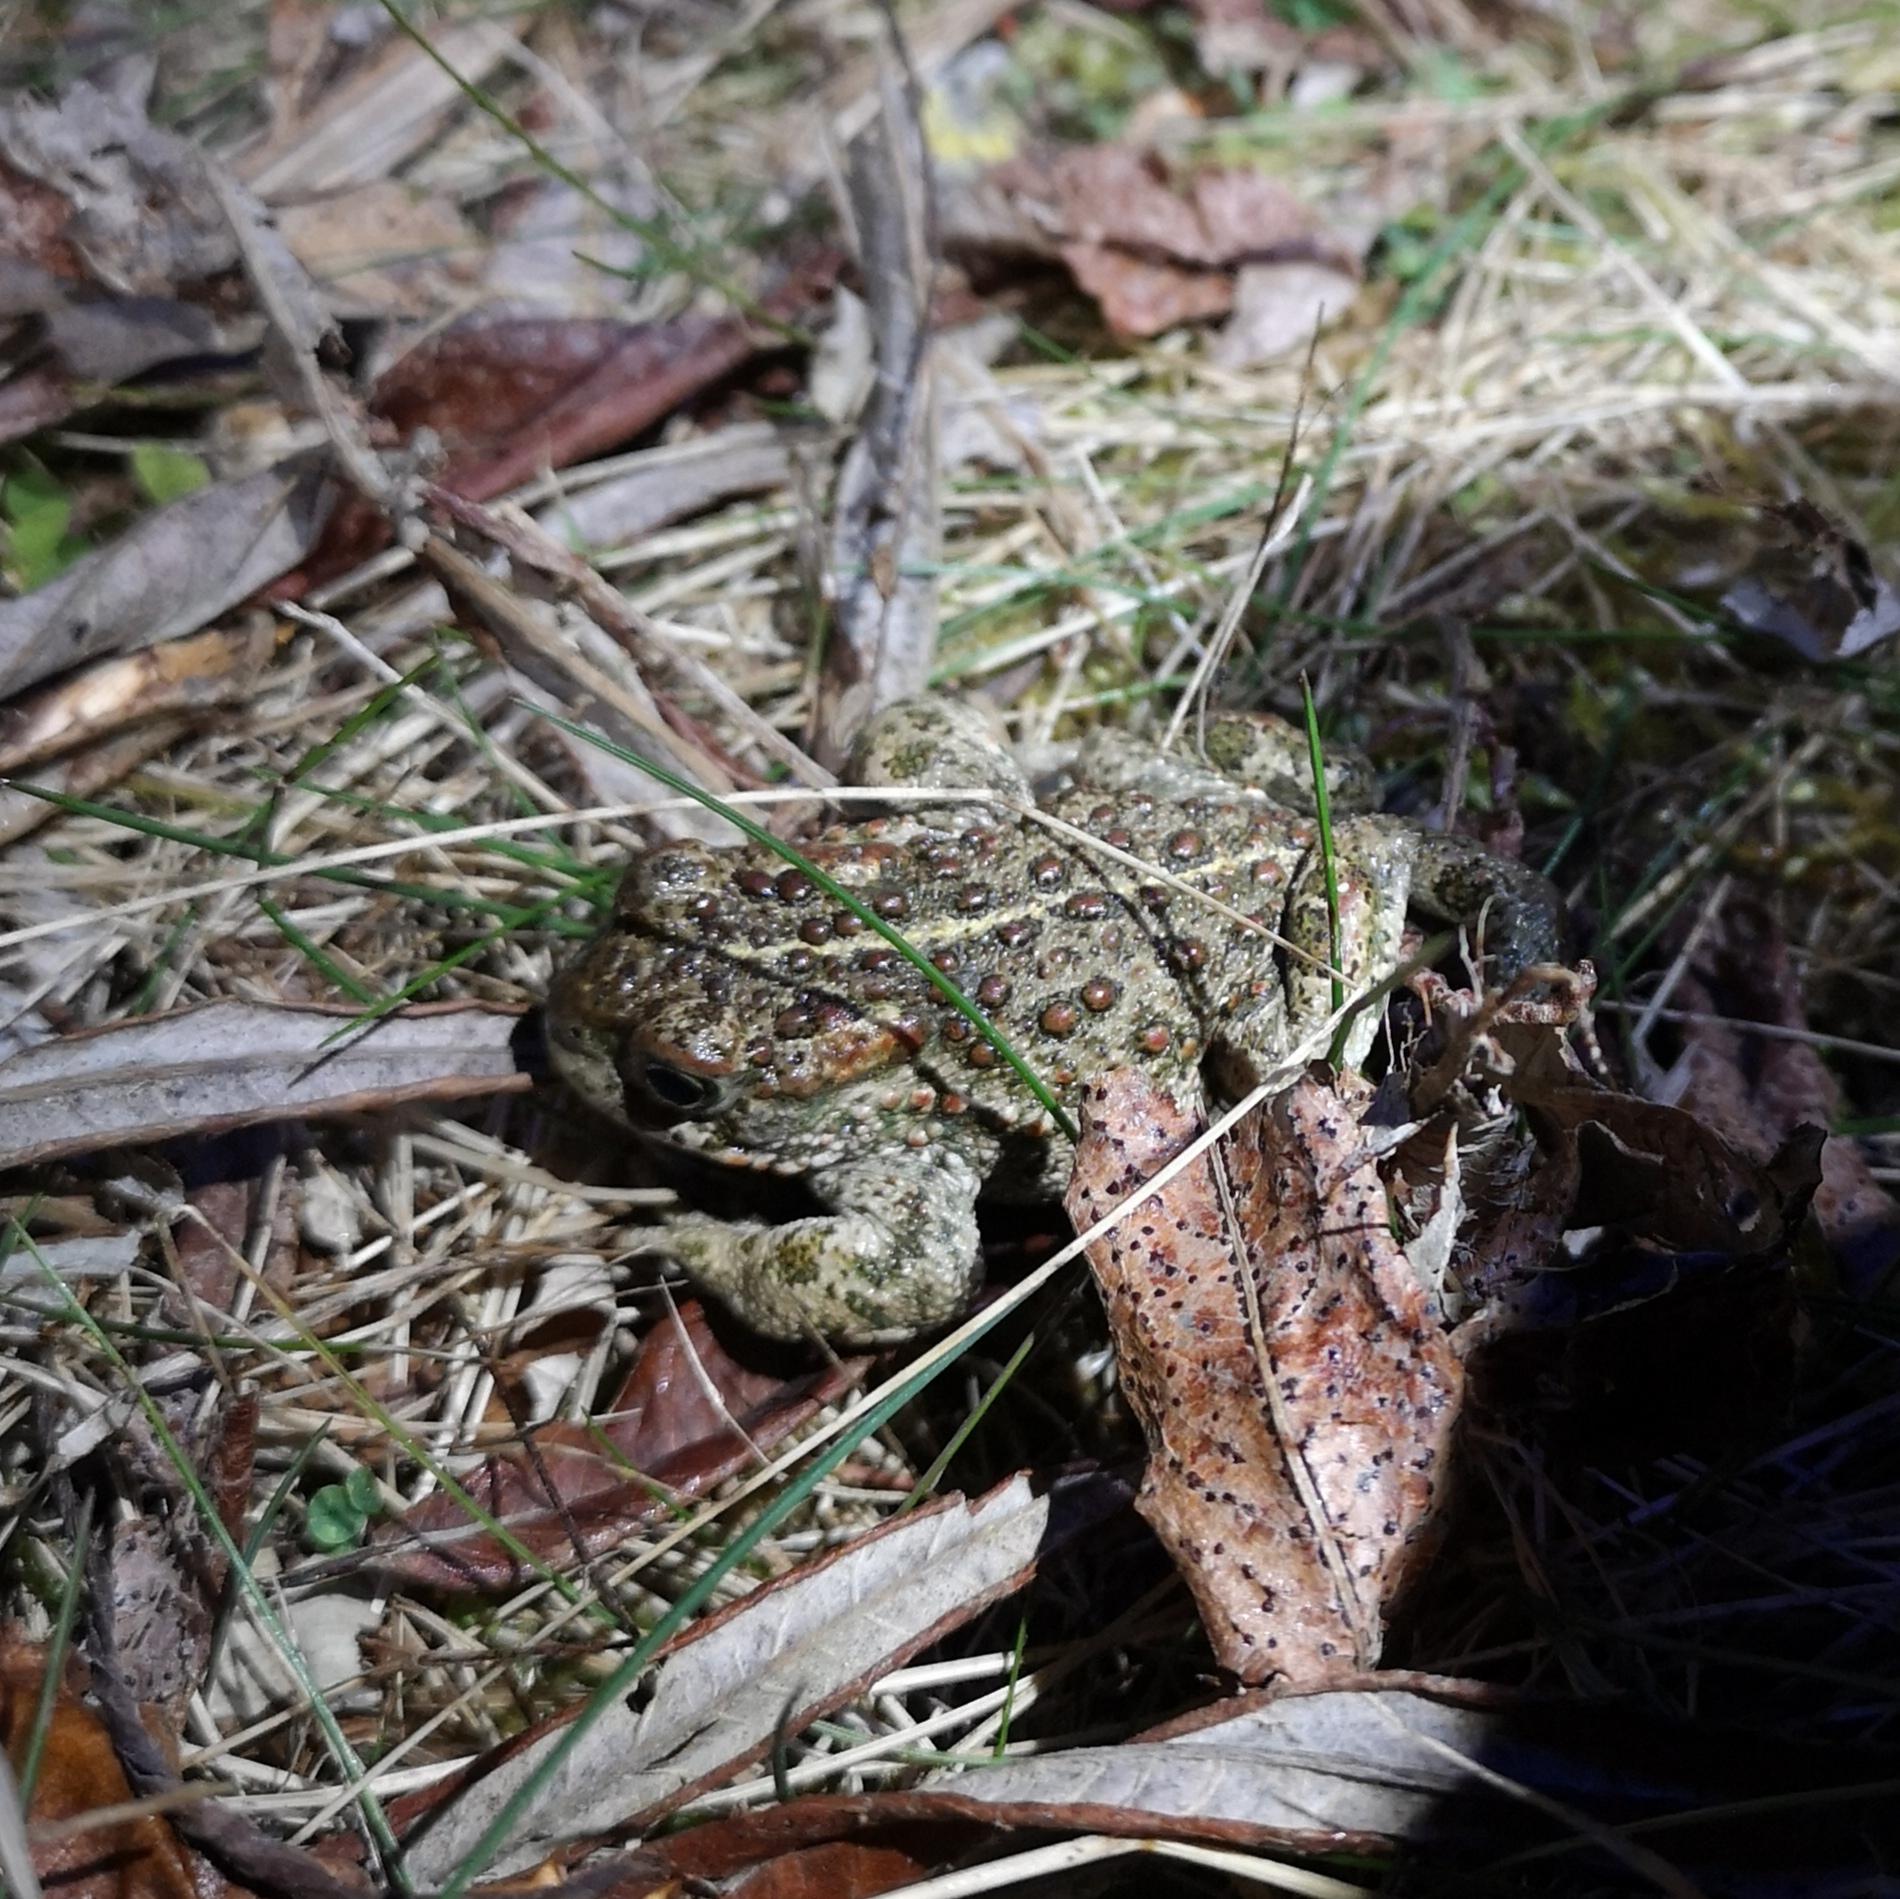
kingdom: Animalia
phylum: Chordata
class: Amphibia
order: Anura
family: Bufonidae
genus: Epidalea
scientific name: Epidalea calamita
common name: Strandtudse
